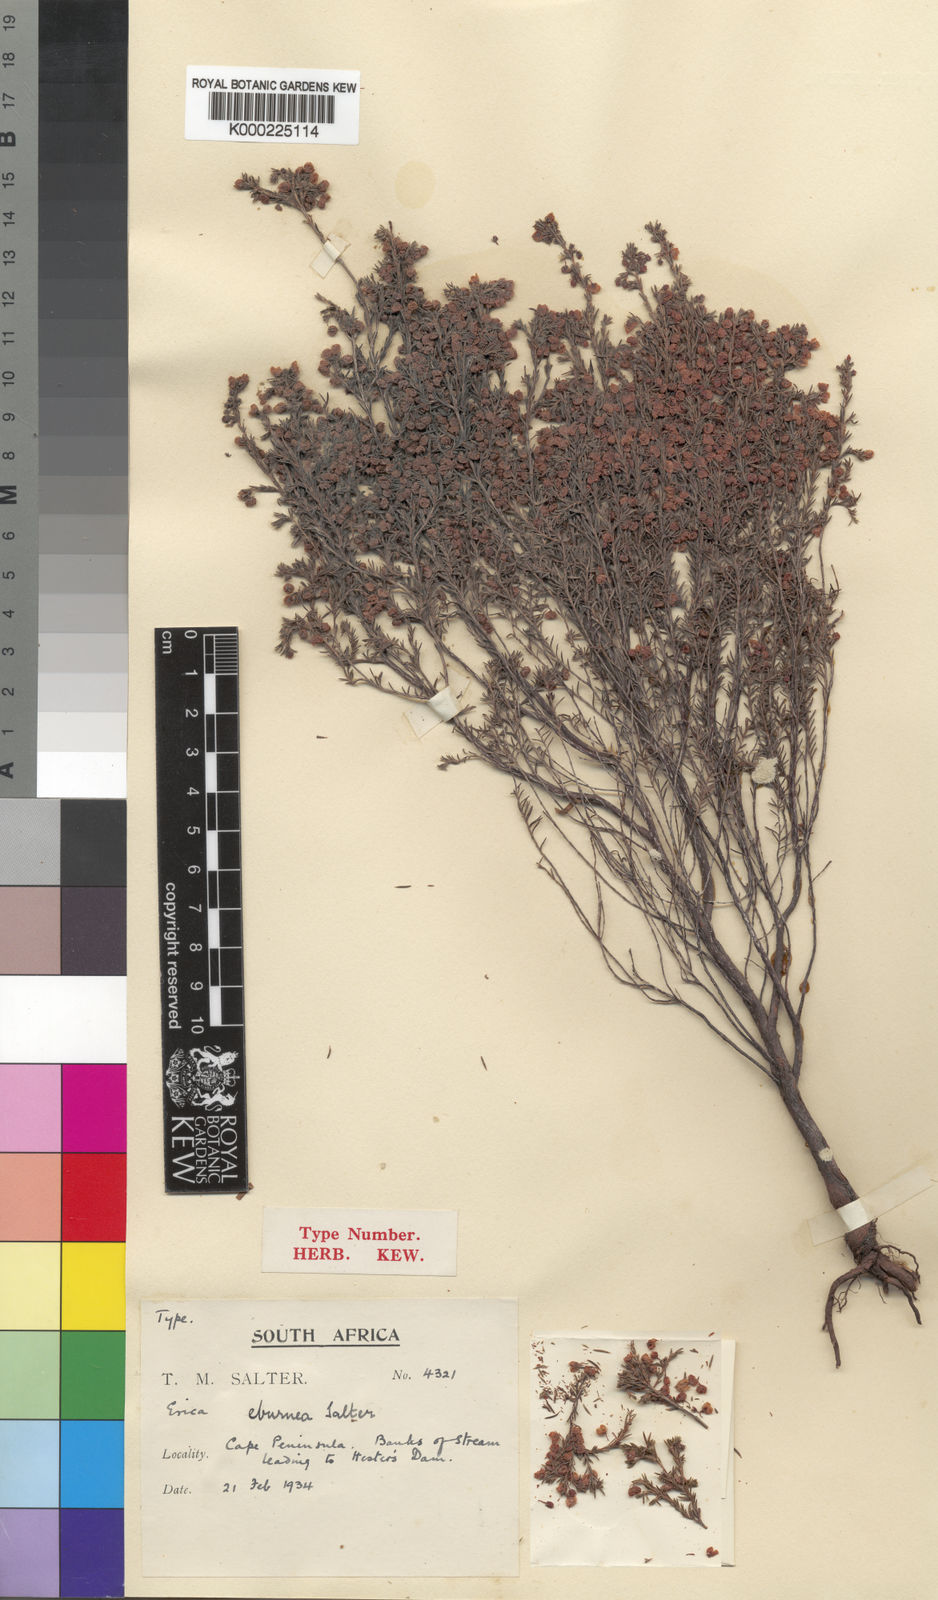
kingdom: Plantae
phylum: Tracheophyta
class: Magnoliopsida
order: Ericales
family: Ericaceae
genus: Erica
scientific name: Erica eburnea
